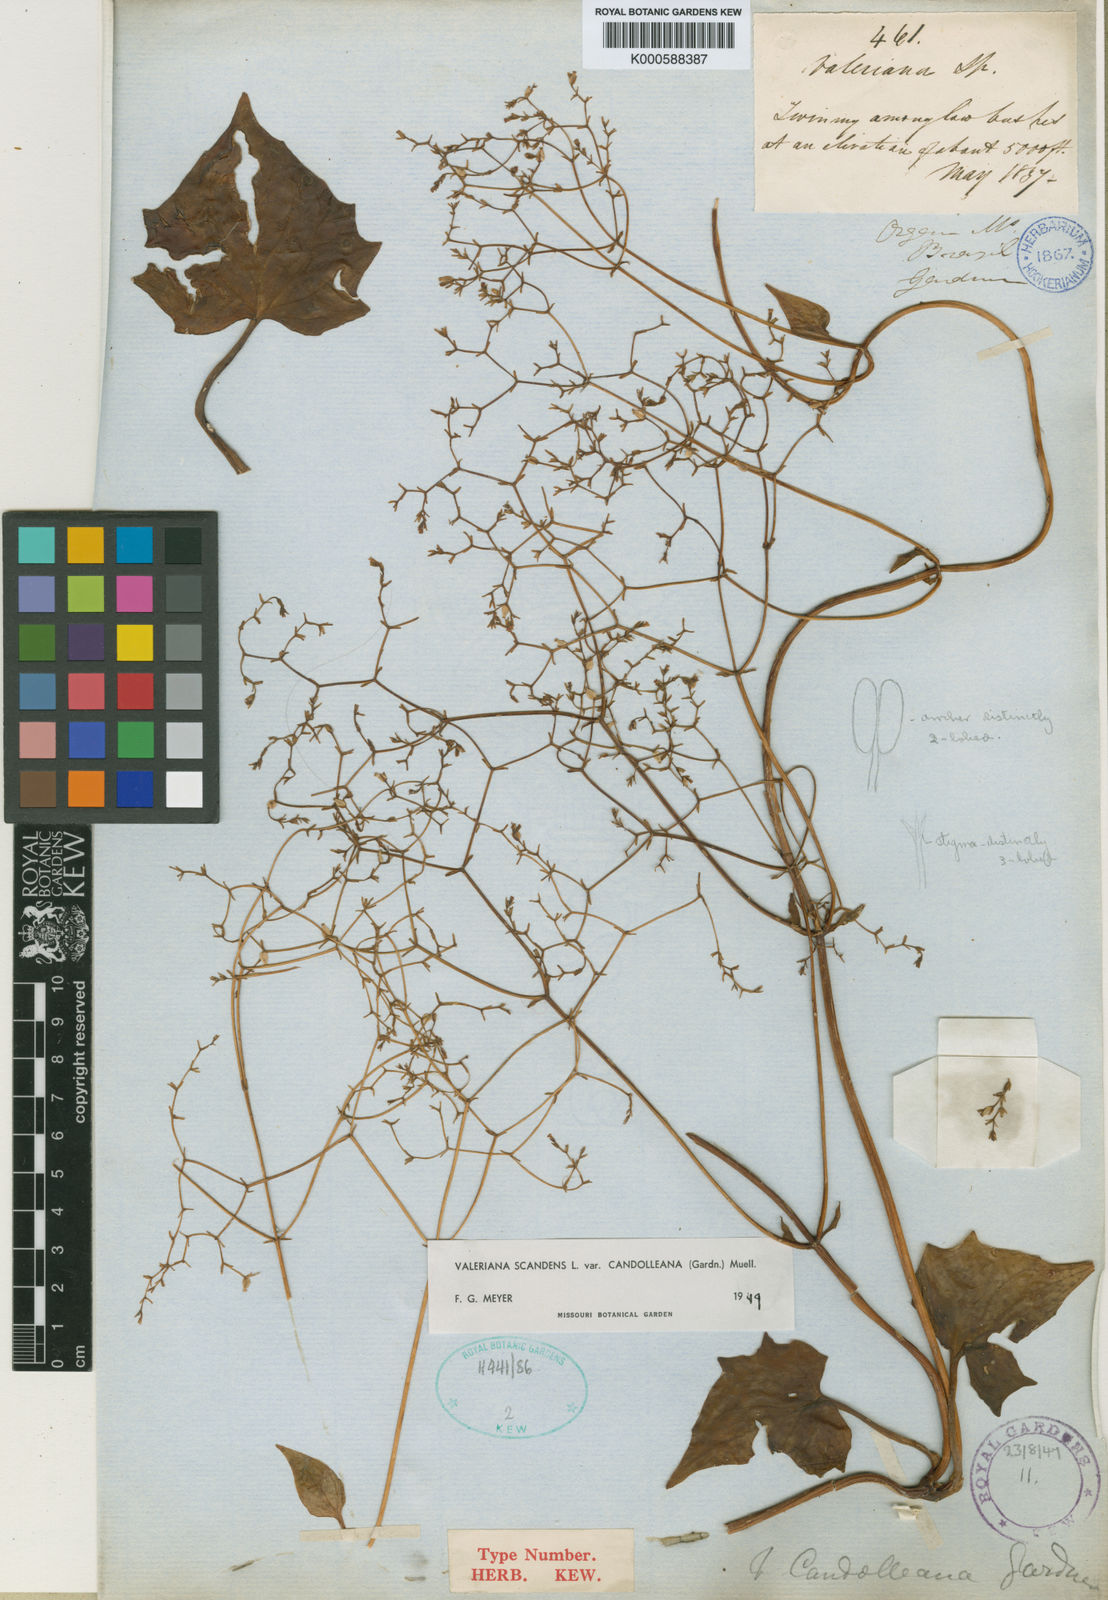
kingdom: Plantae
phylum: Tracheophyta
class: Magnoliopsida
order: Dipsacales
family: Caprifoliaceae
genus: Valeriana
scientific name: Valeriana candolleana
